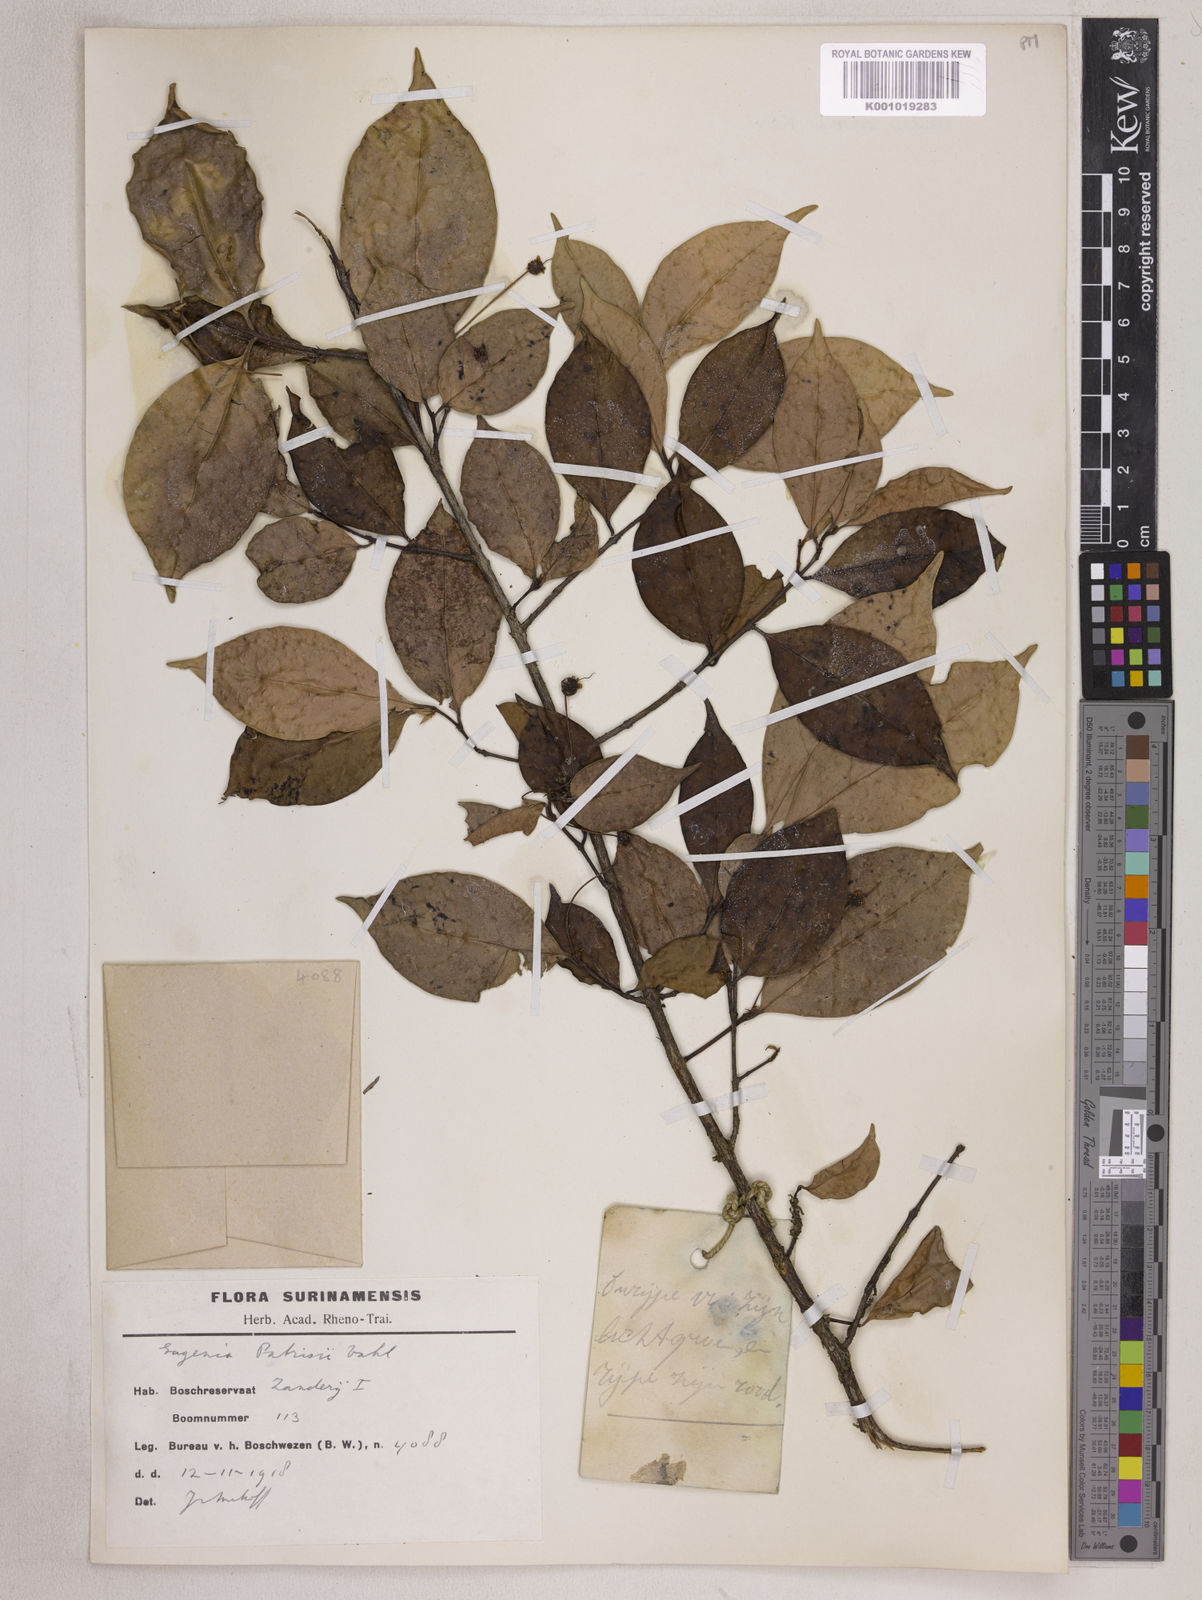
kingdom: Plantae
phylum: Tracheophyta
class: Magnoliopsida
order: Myrtales
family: Myrtaceae
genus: Eugenia
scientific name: Eugenia patrisii
